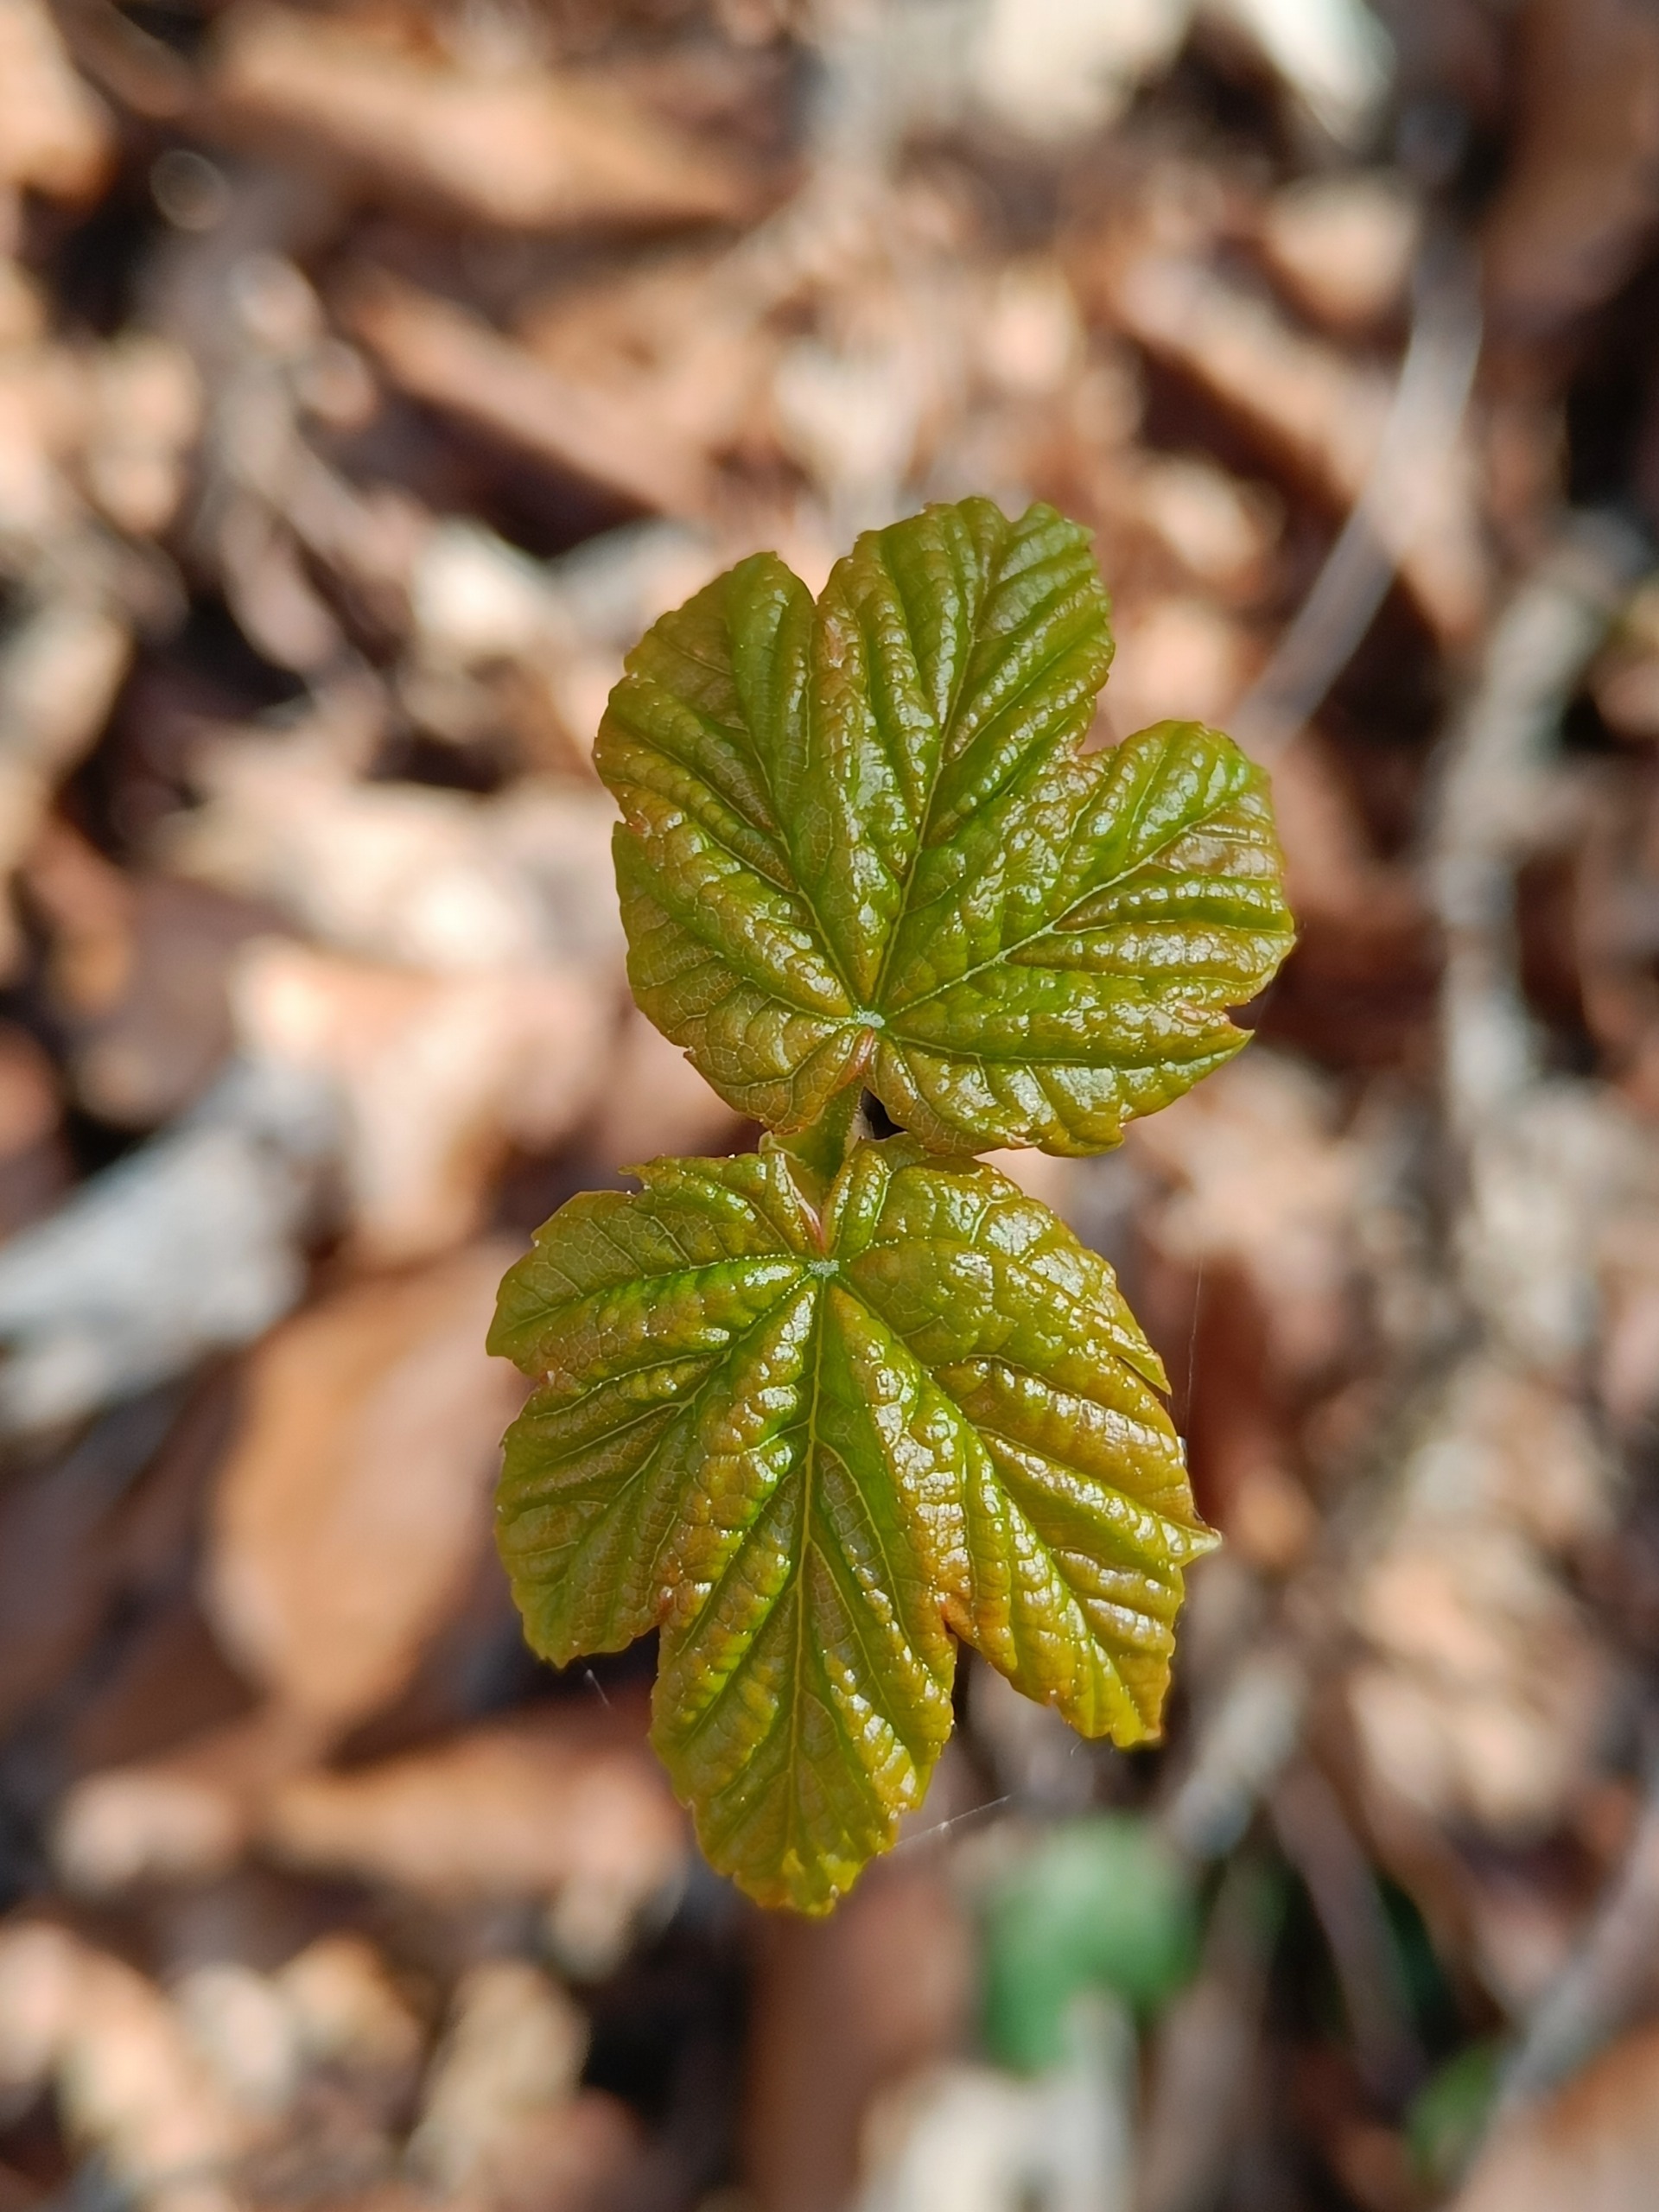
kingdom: Plantae
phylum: Tracheophyta
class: Magnoliopsida
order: Sapindales
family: Sapindaceae
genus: Acer
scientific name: Acer pseudoplatanus
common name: Ahorn
